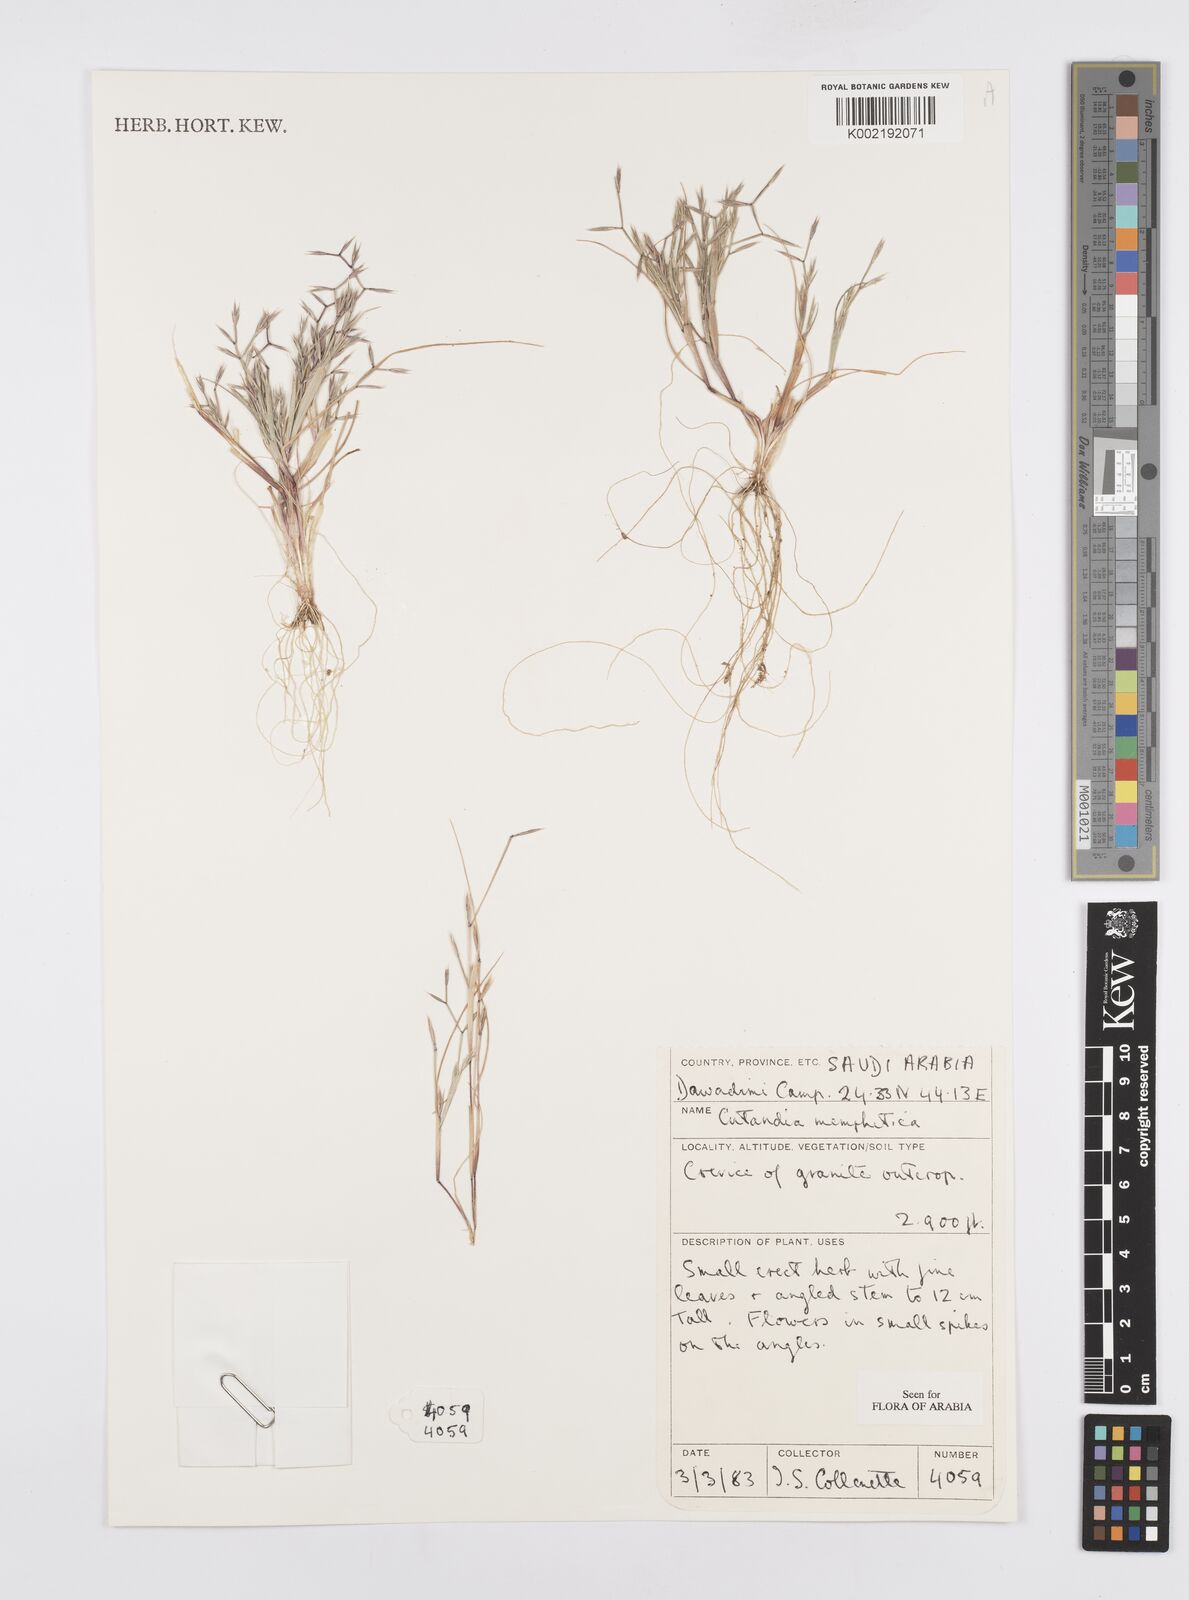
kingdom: Plantae
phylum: Tracheophyta
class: Liliopsida
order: Poales
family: Poaceae
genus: Cutandia
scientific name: Cutandia memphitica
